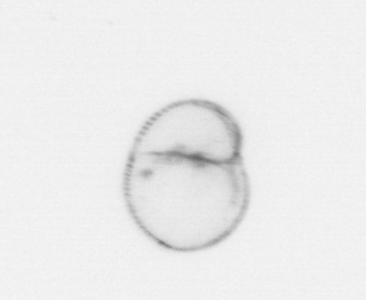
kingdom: Chromista
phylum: Myzozoa
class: Dinophyceae
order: Noctilucales
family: Noctilucaceae
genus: Noctiluca
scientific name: Noctiluca scintillans
